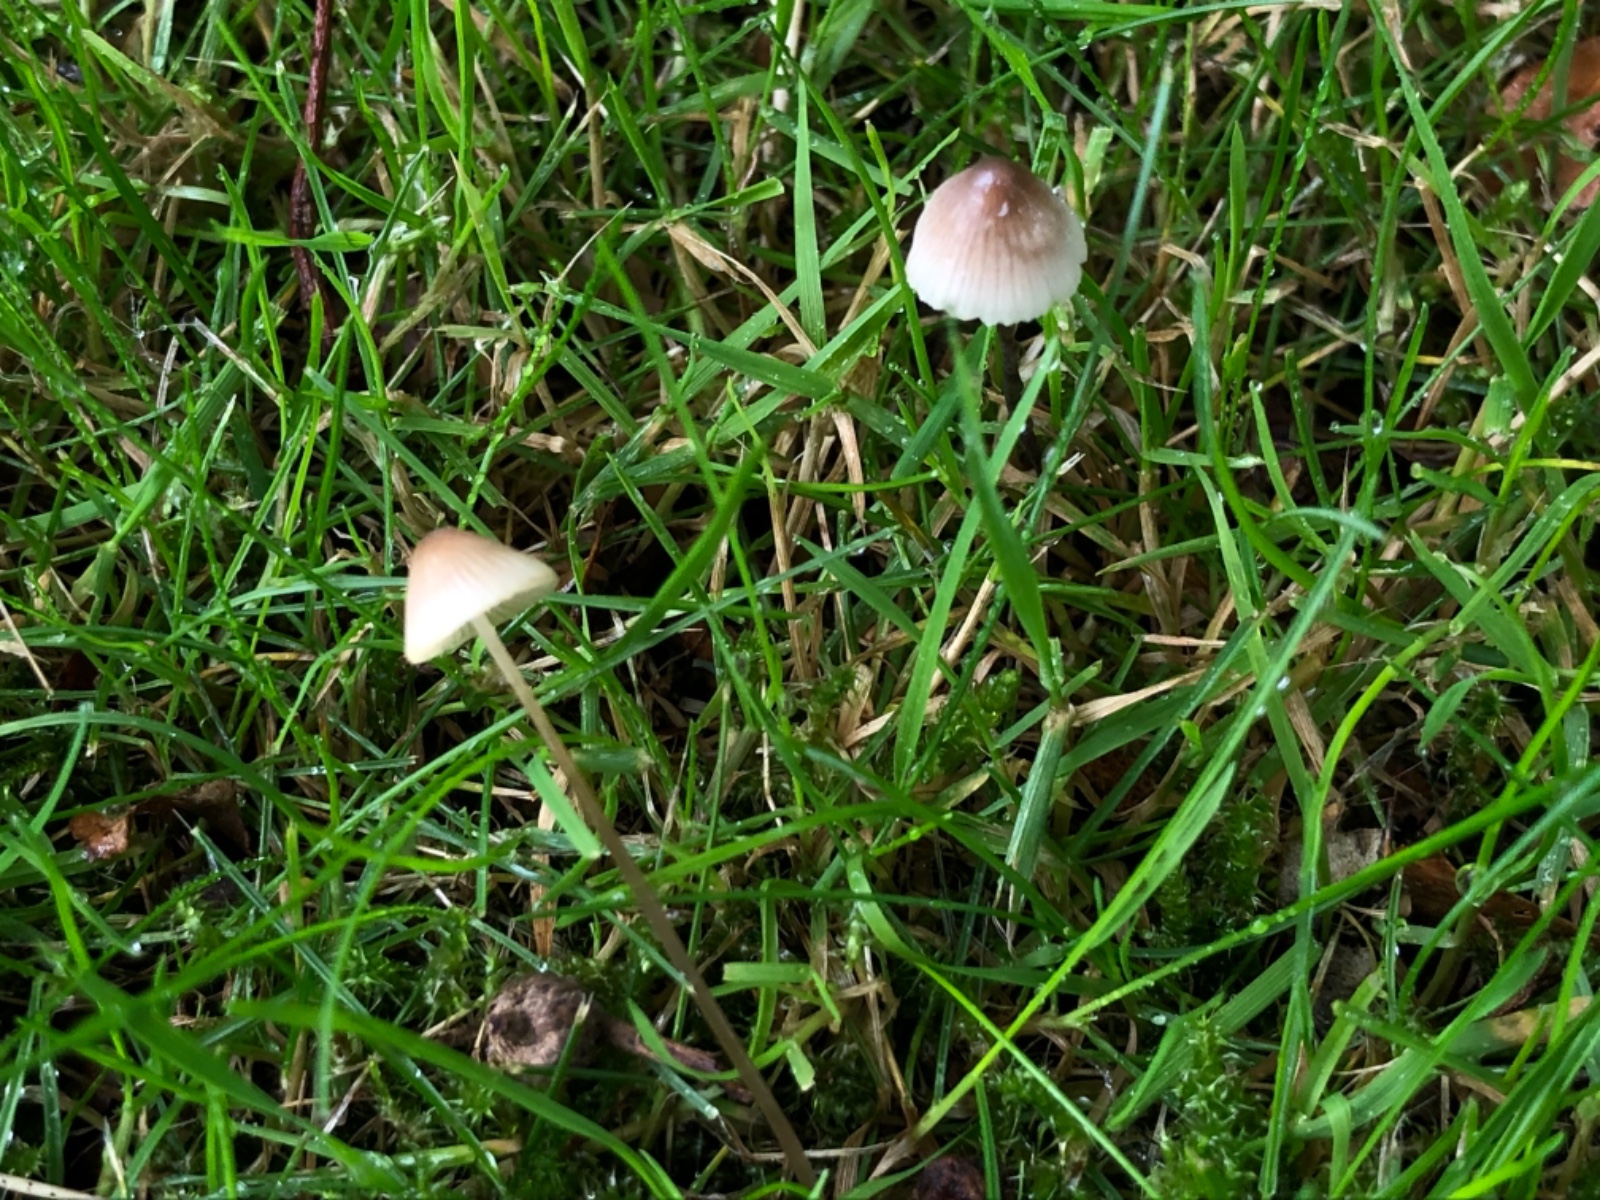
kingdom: Fungi
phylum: Basidiomycota
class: Agaricomycetes
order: Agaricales
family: Mycenaceae
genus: Mycena
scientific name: Mycena flavescens
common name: grågul huesvamp
